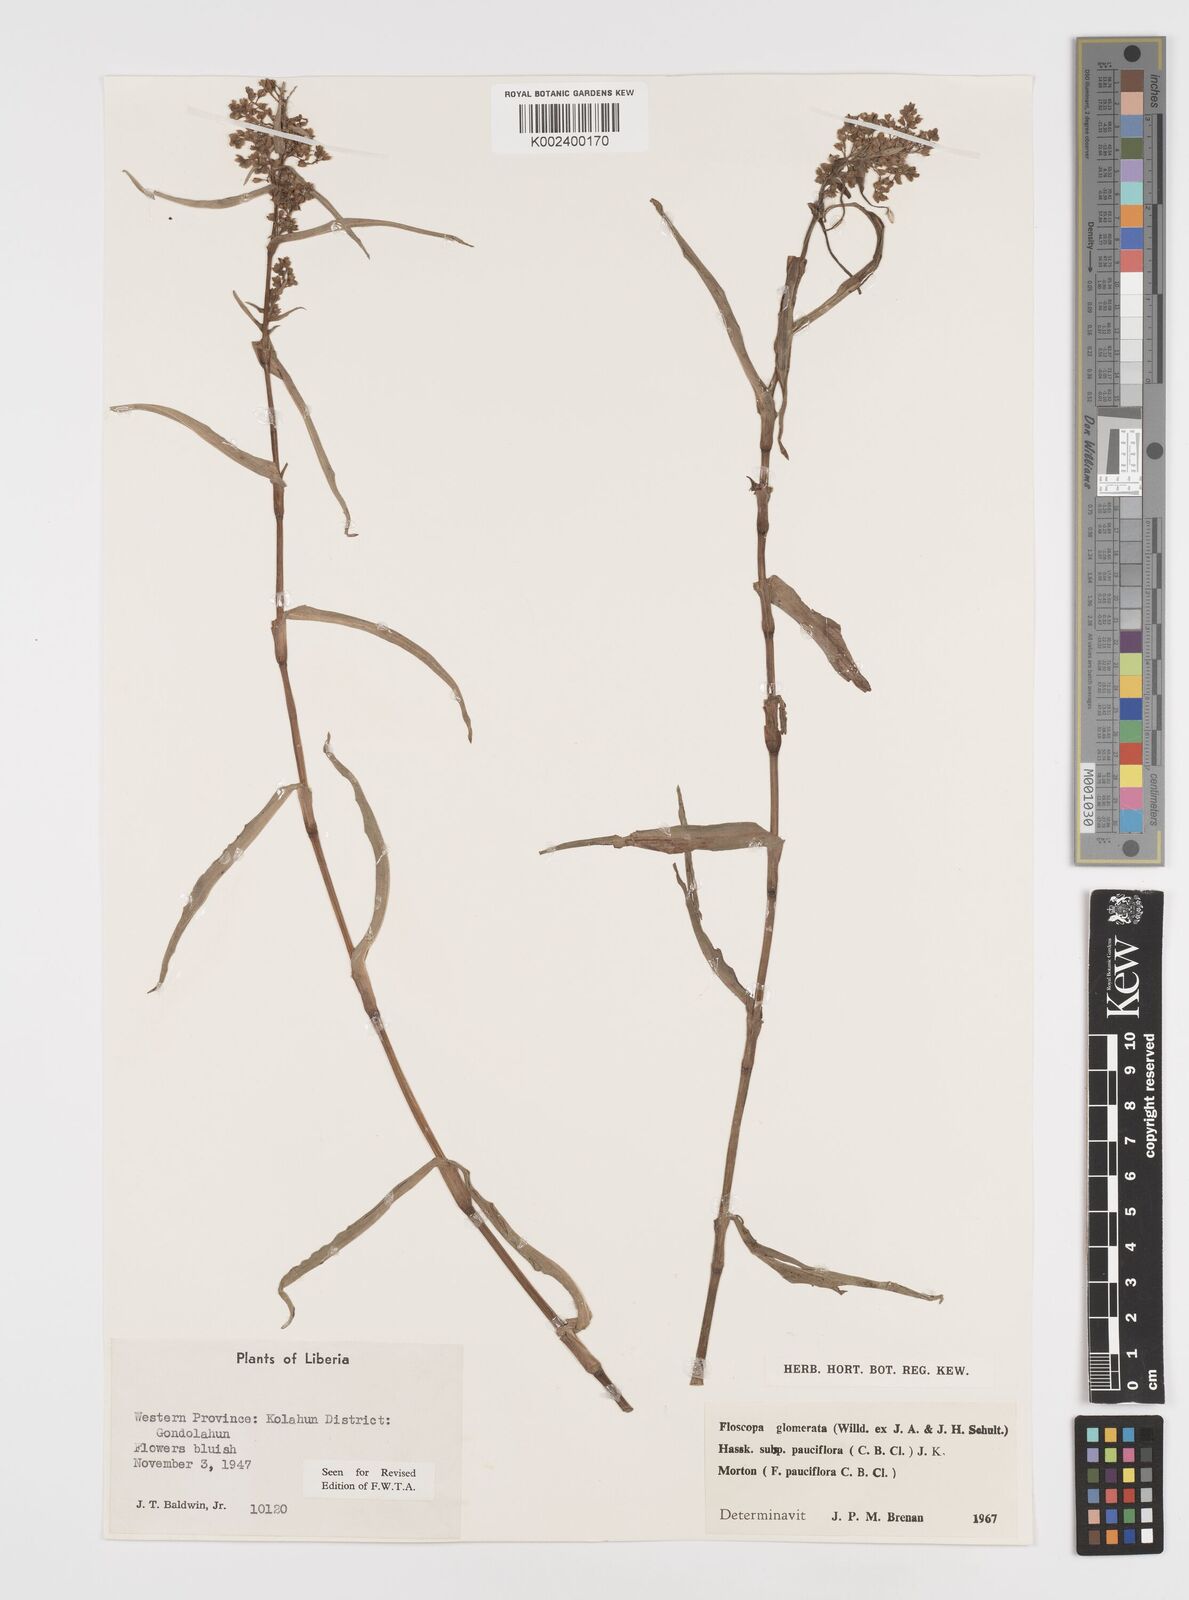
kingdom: Plantae
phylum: Tracheophyta
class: Liliopsida
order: Commelinales
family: Commelinaceae
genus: Floscopa
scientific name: Floscopa glomerata
